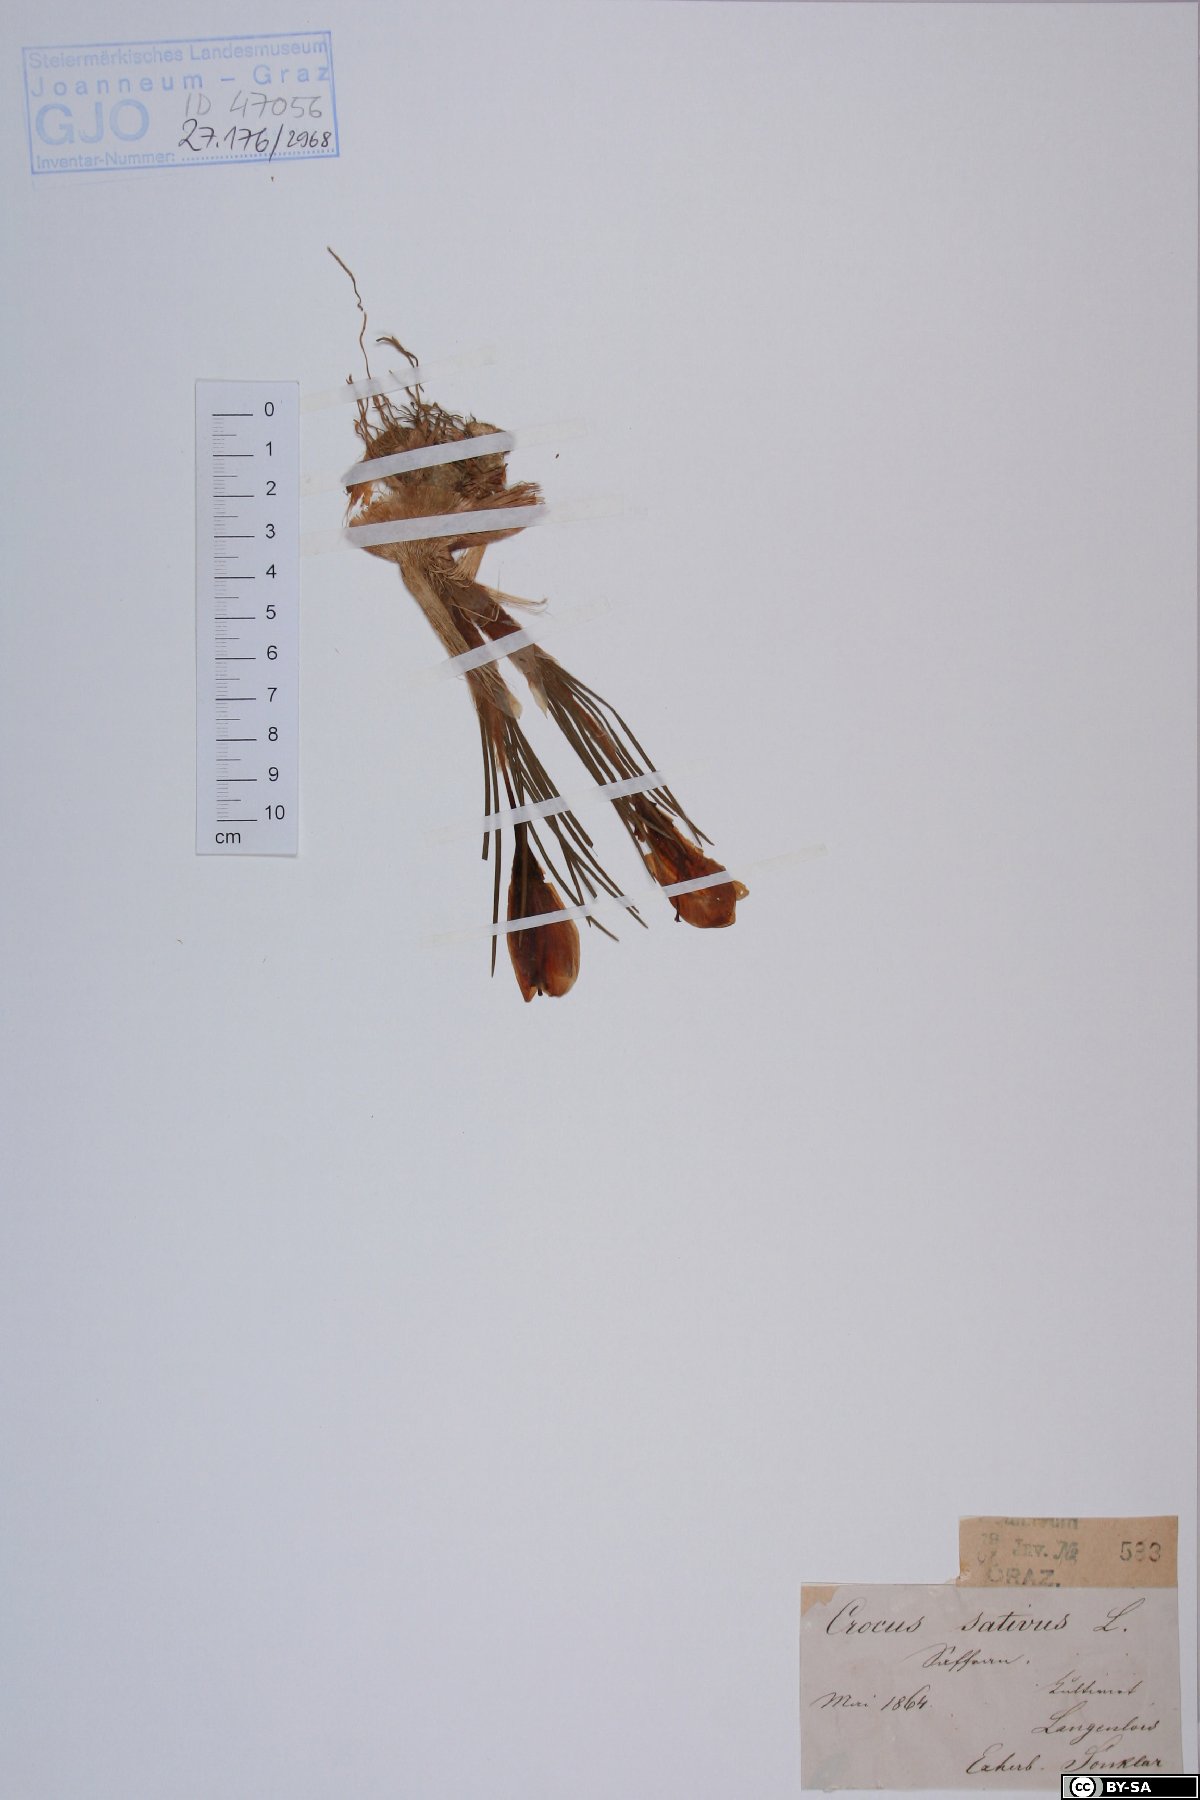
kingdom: Plantae
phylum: Tracheophyta
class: Liliopsida
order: Asparagales
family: Iridaceae
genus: Crocus
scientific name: Crocus sativus
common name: Saffron crocus
